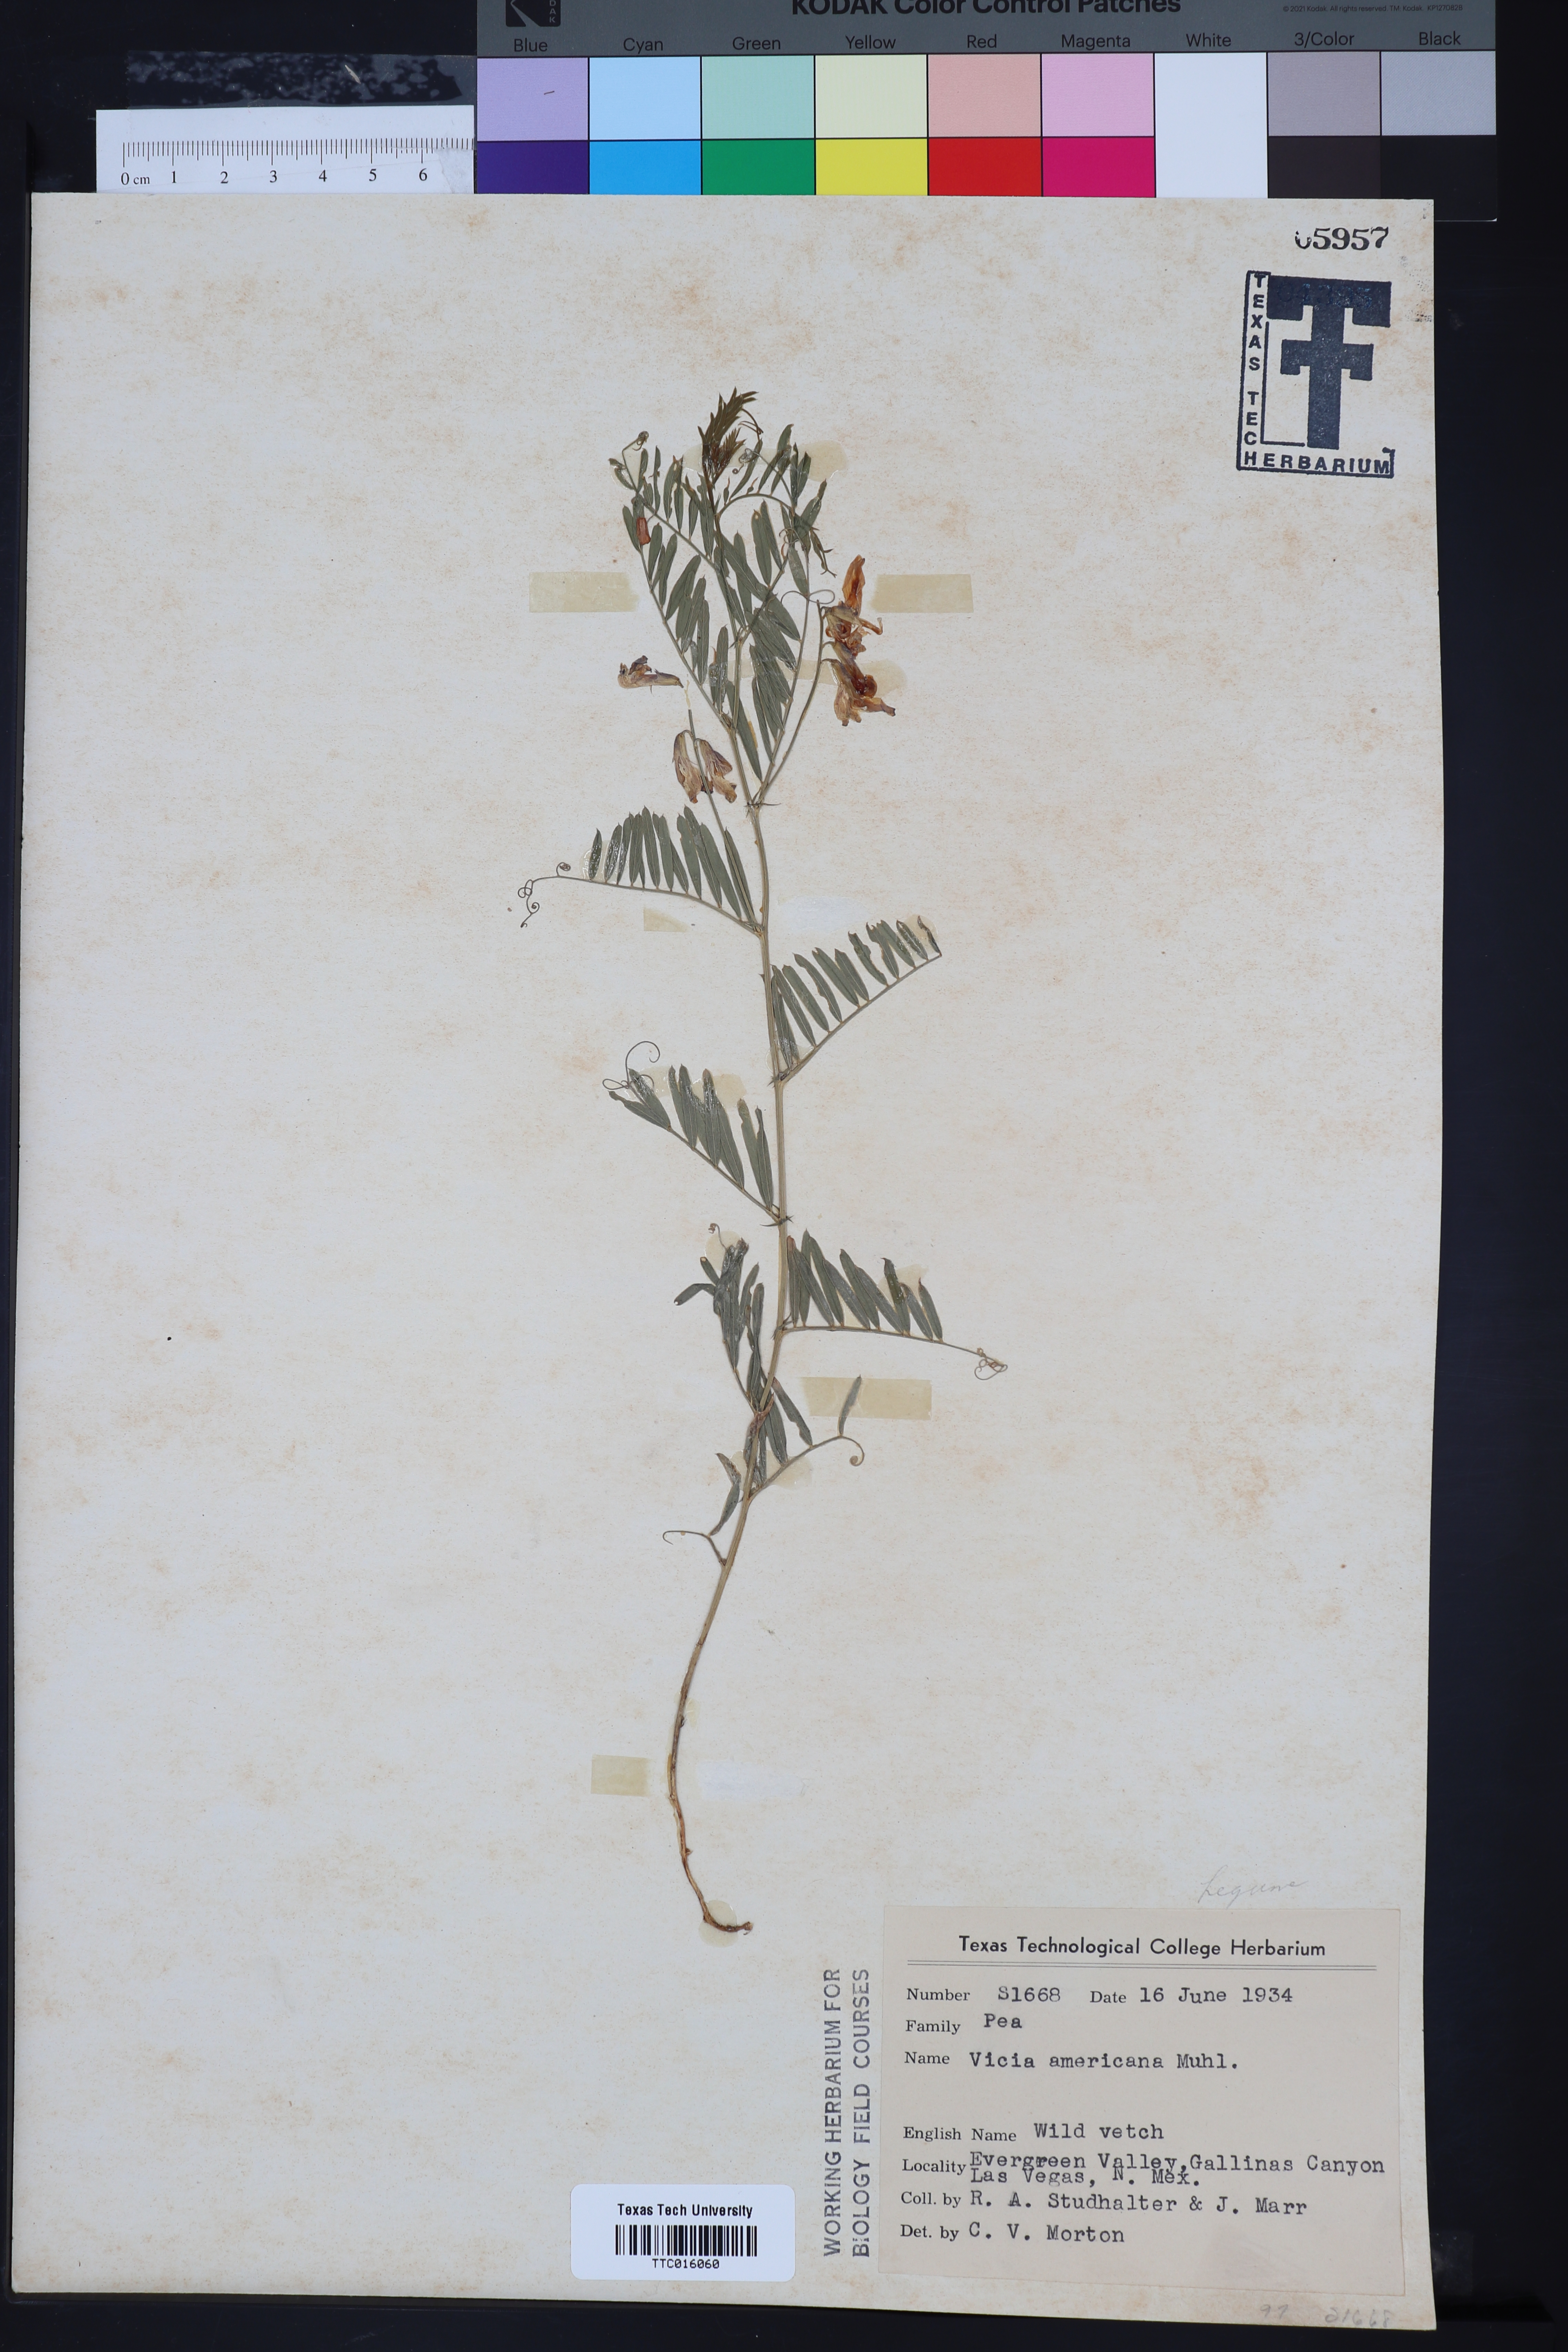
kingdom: Plantae
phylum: Tracheophyta
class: Magnoliopsida
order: Fabales
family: Fabaceae
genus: Vicia
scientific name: Vicia americana
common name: American vetch
